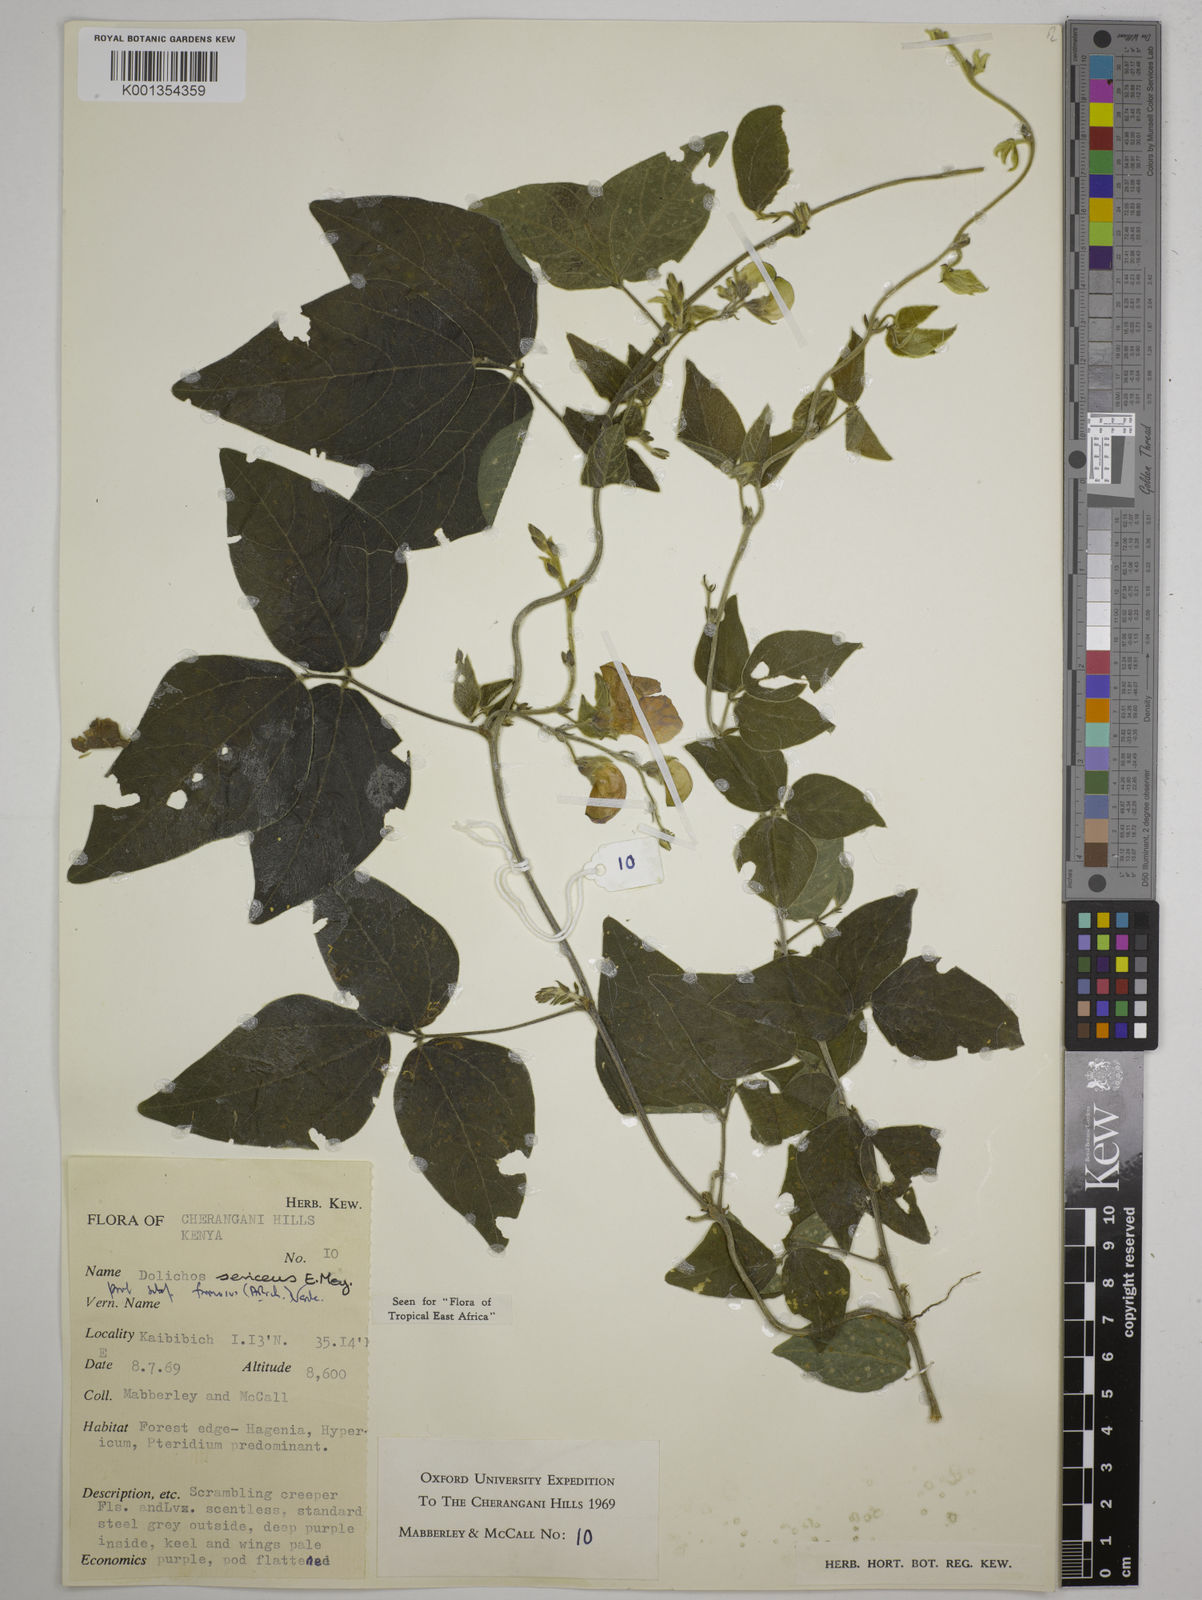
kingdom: Plantae
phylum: Tracheophyta
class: Magnoliopsida
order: Fabales
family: Fabaceae
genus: Dolichos
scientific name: Dolichos
